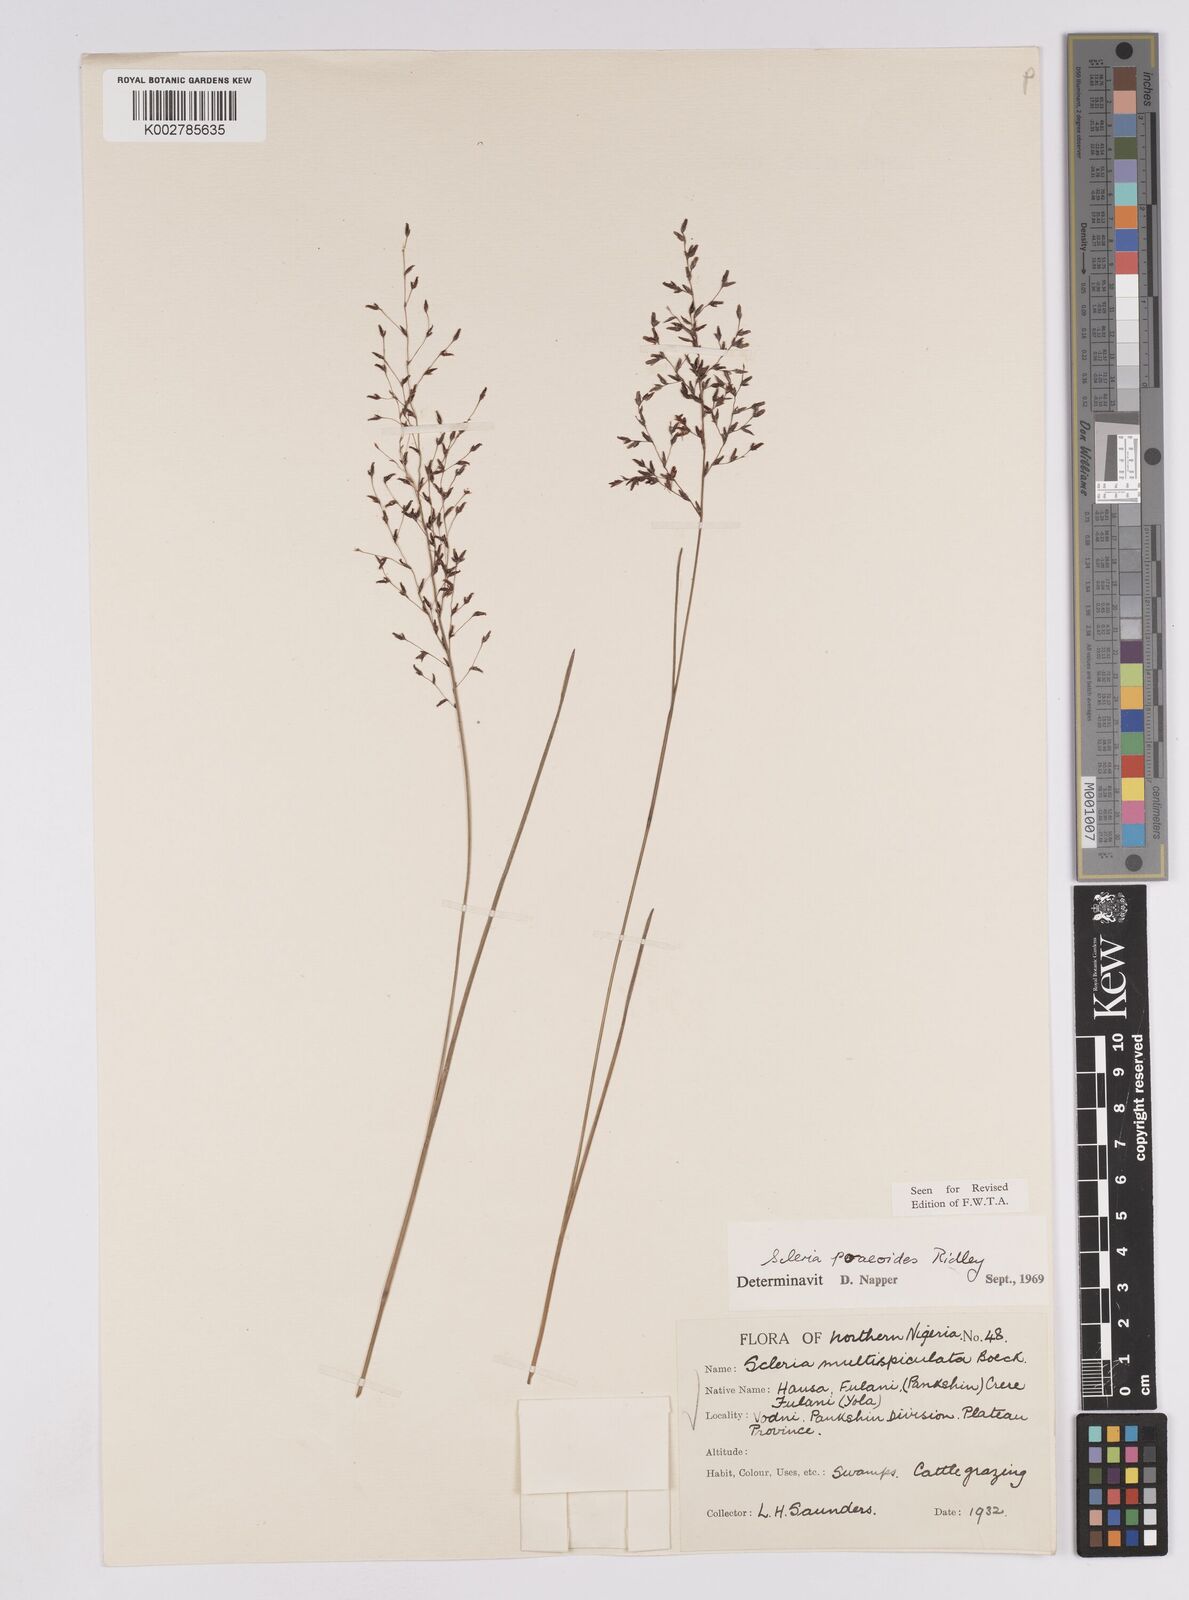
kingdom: Plantae
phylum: Tracheophyta
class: Liliopsida
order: Poales
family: Cyperaceae
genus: Scleria
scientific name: Scleria pooides
